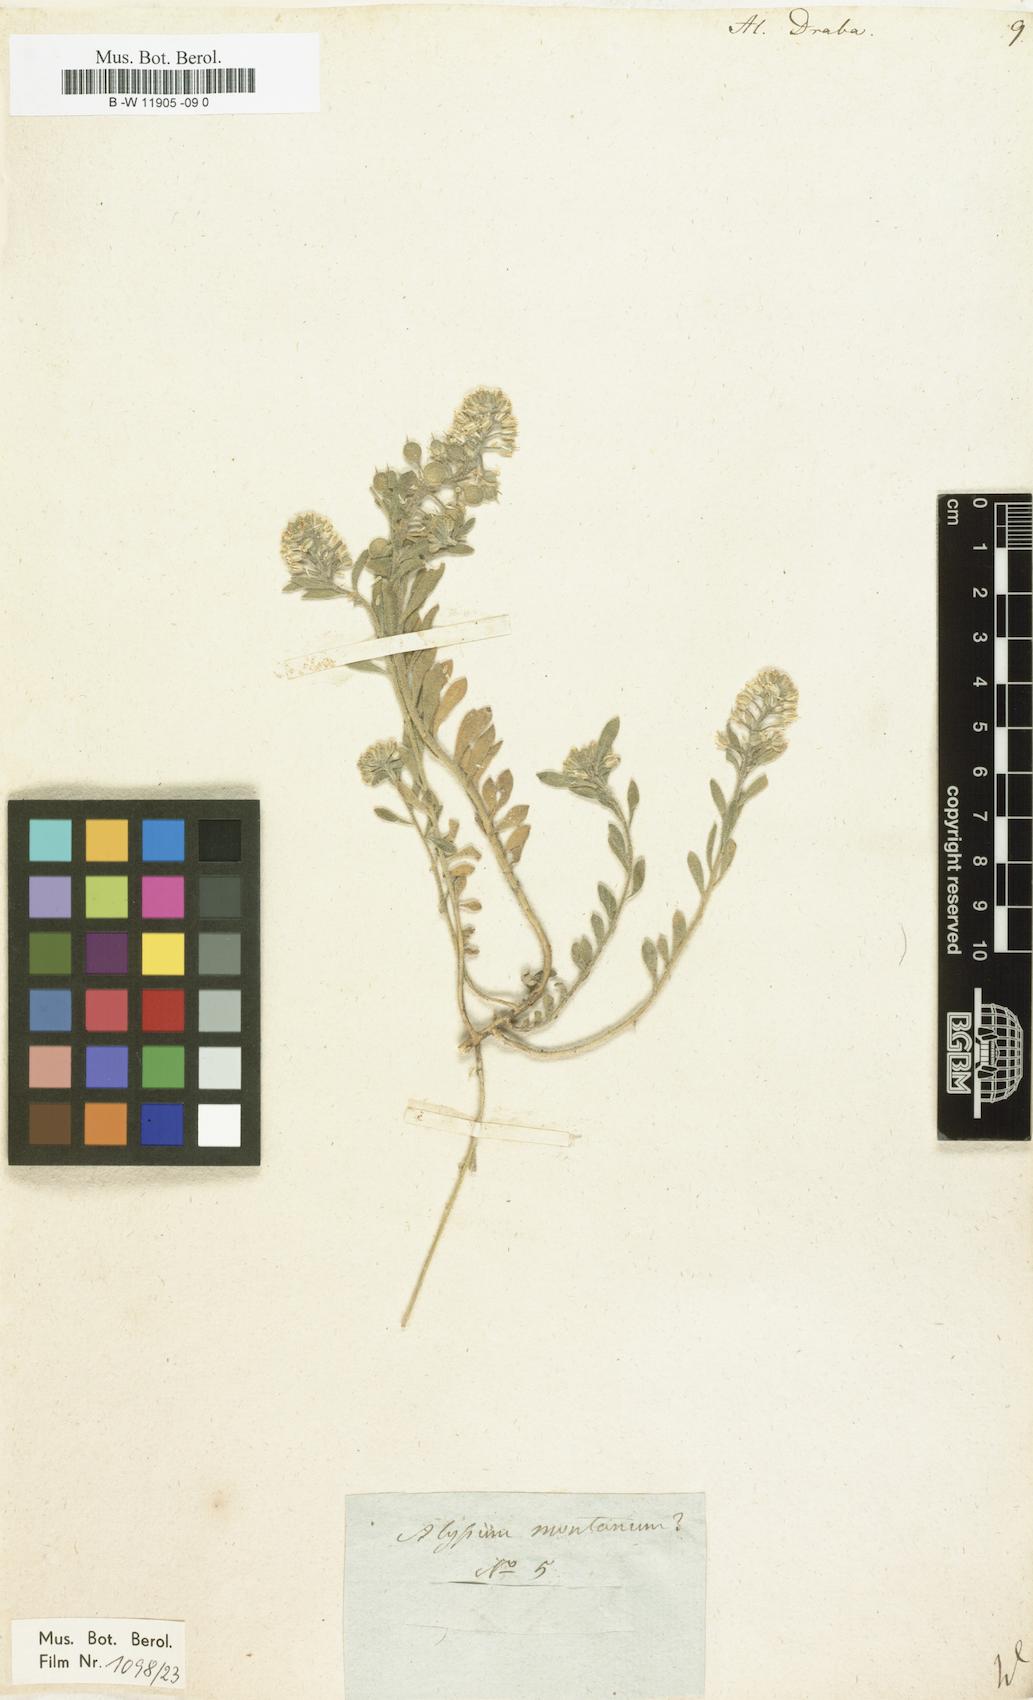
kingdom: Plantae
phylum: Tracheophyta
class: Magnoliopsida
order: Brassicales
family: Brassicaceae
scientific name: Brassicaceae
